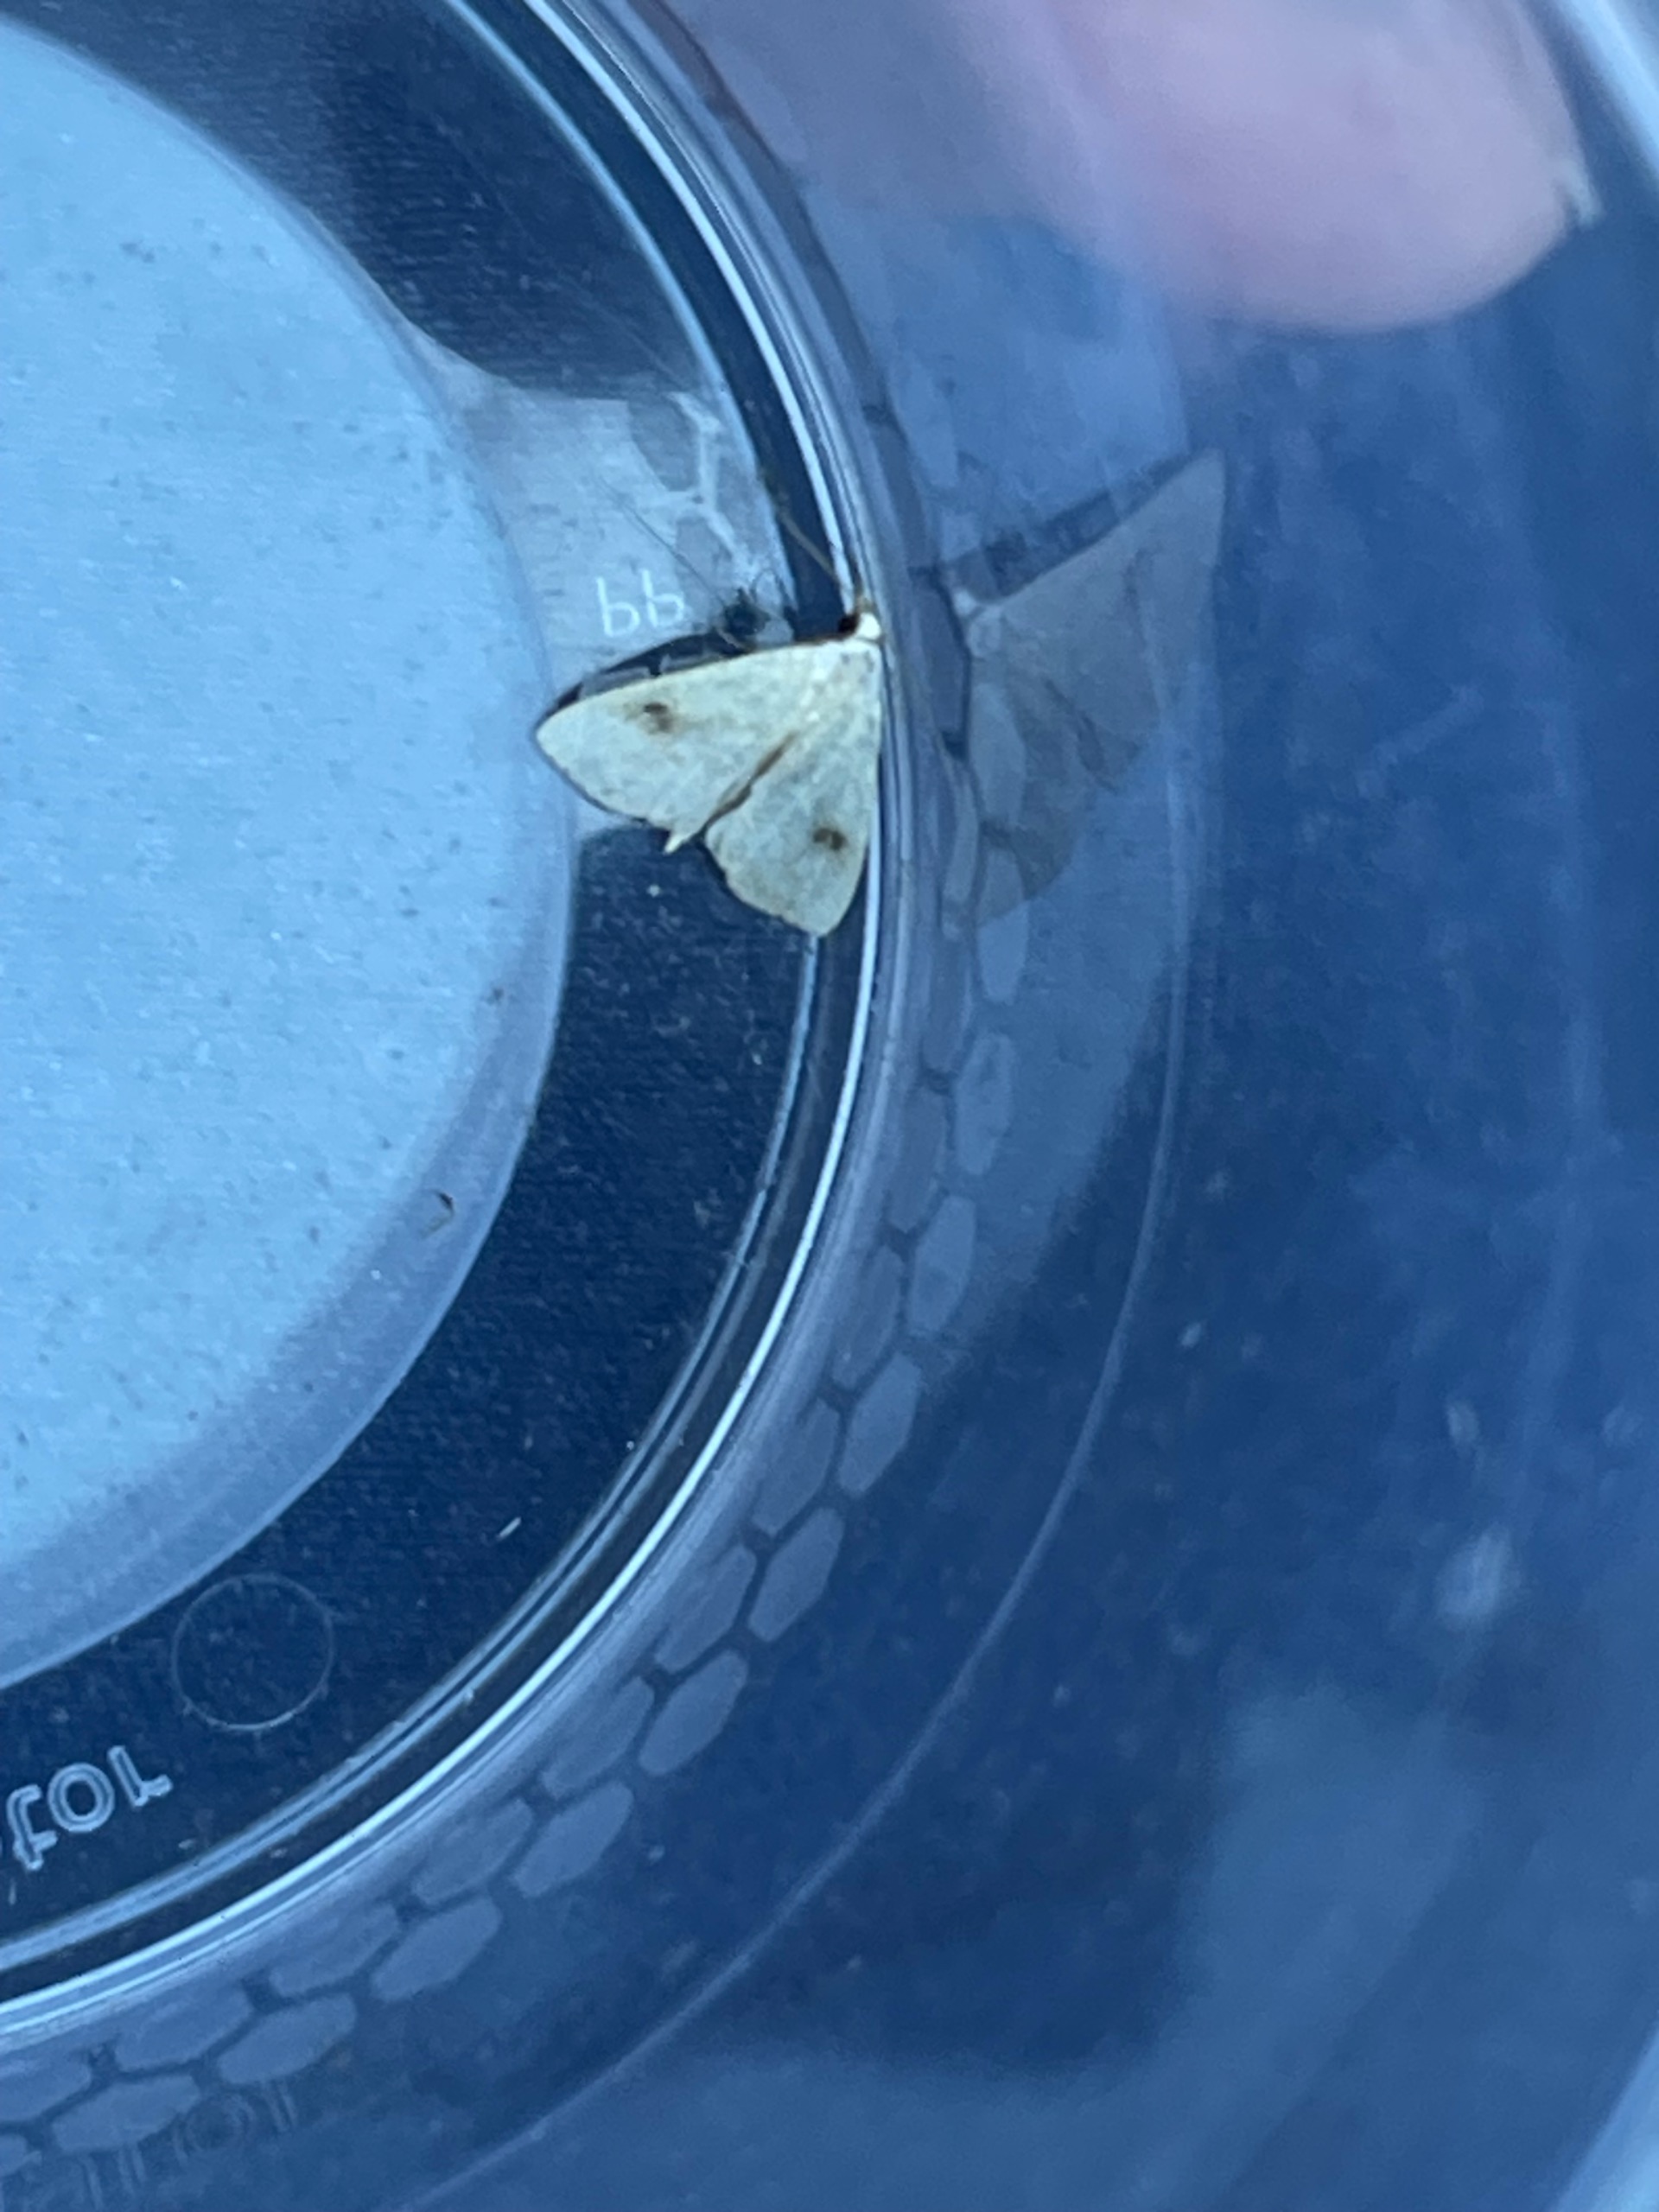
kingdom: Animalia
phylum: Arthropoda
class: Insecta
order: Lepidoptera
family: Erebidae
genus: Rivula
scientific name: Rivula sericealis
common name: Lille å-ugle
